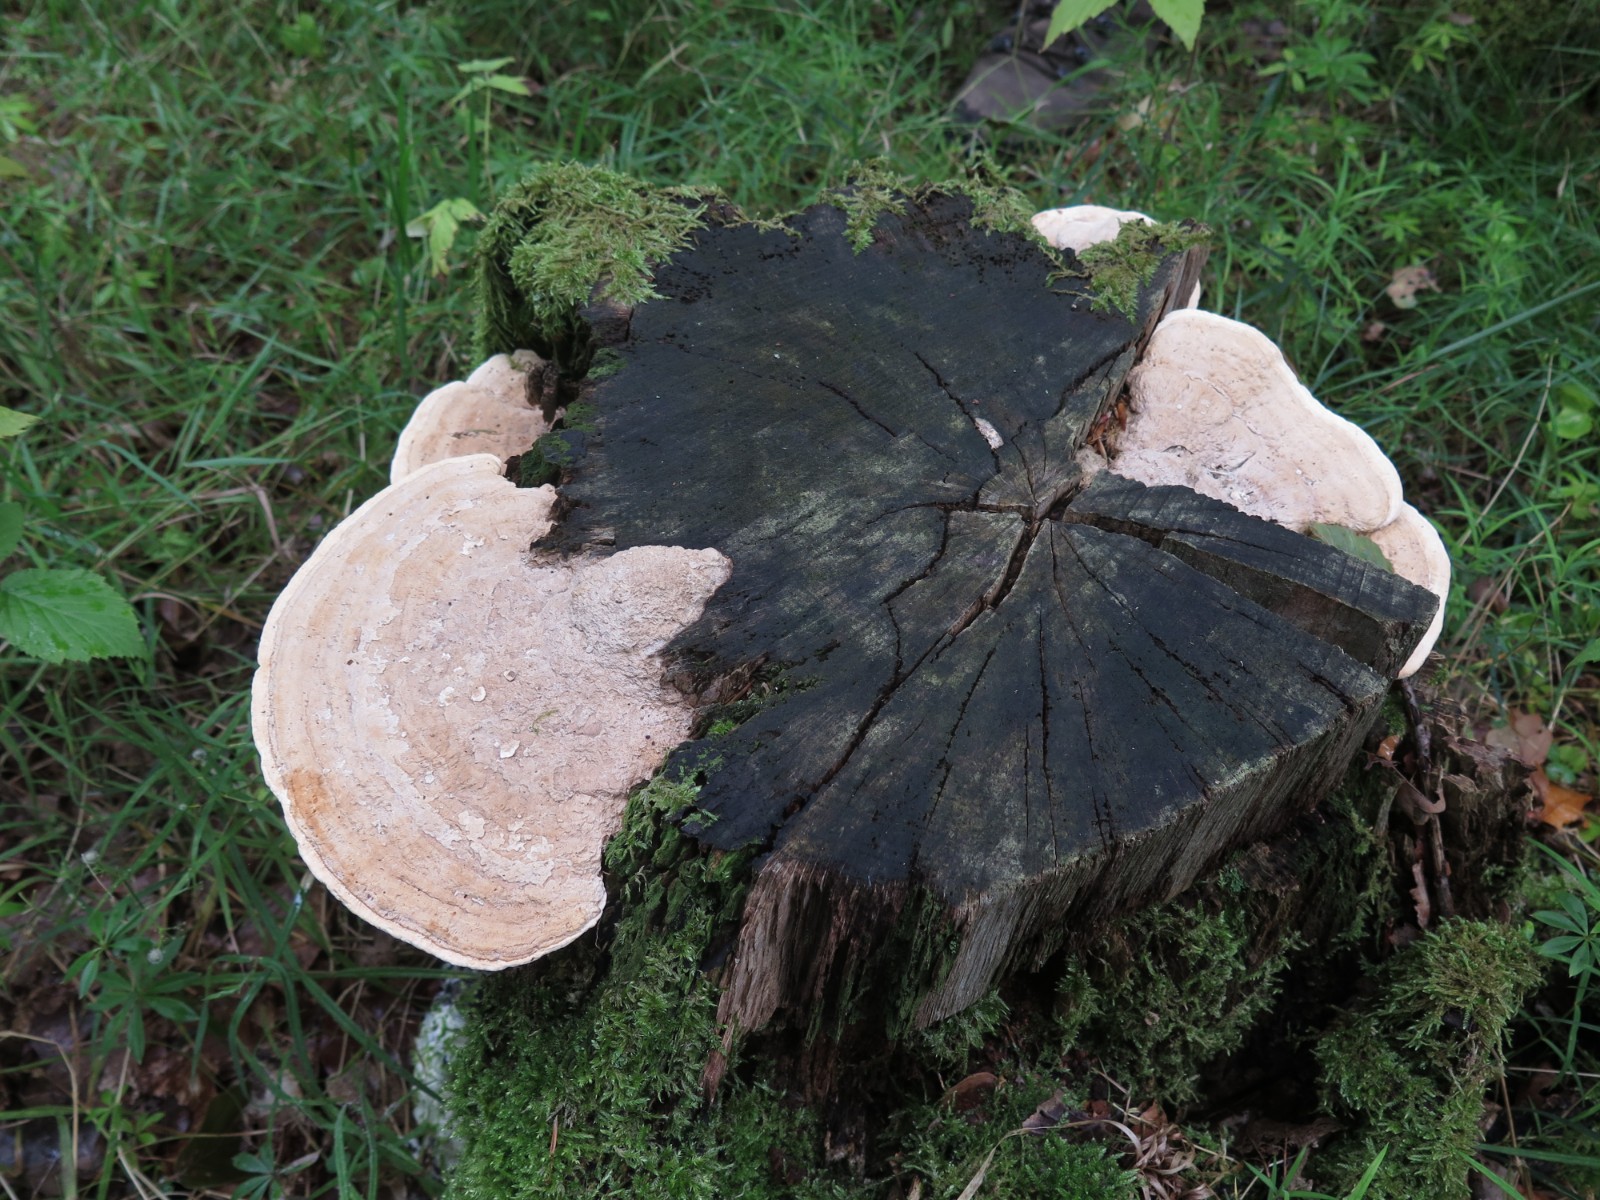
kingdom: Fungi
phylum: Basidiomycota
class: Agaricomycetes
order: Polyporales
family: Fomitopsidaceae
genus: Daedalea
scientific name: Daedalea quercina
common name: ege-labyrintsvamp
